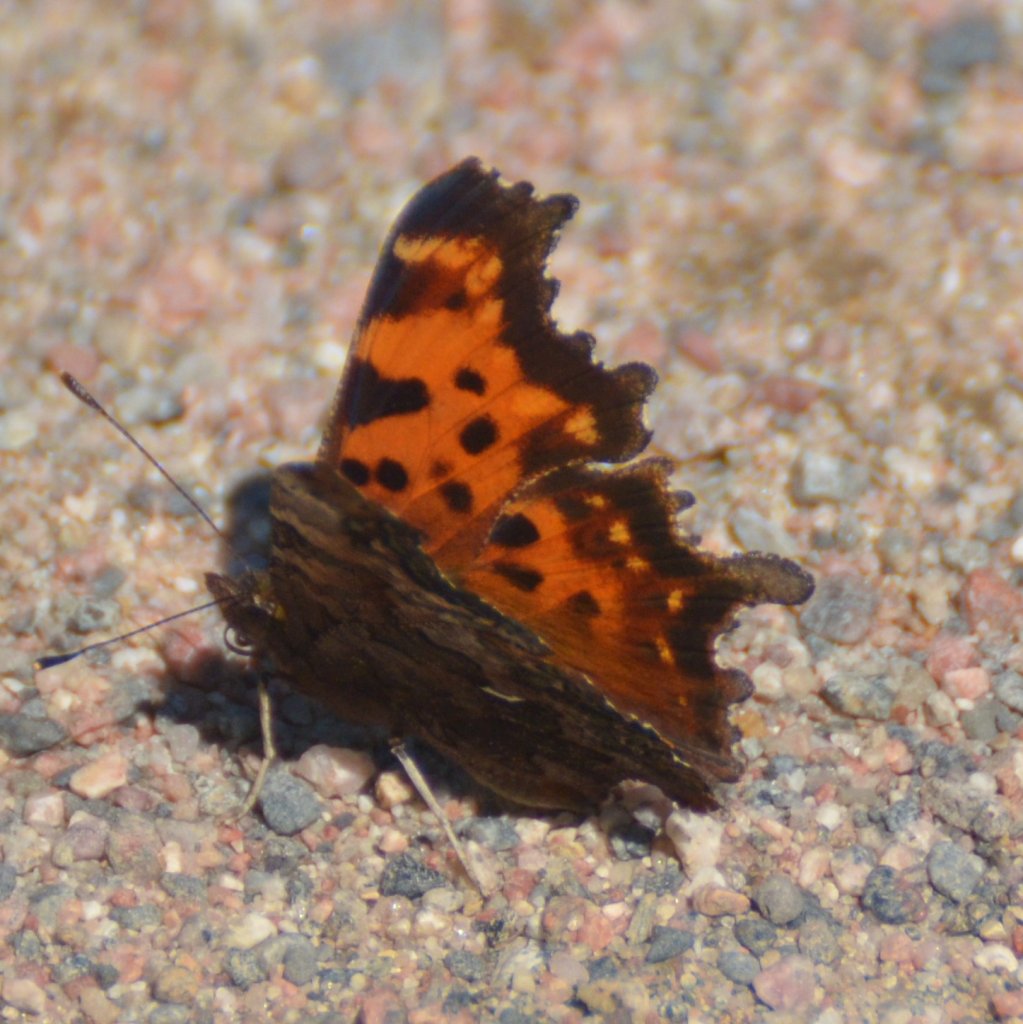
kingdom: Animalia
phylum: Arthropoda
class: Insecta
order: Lepidoptera
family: Nymphalidae
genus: Polygonia
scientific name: Polygonia faunus
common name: Green Comma
